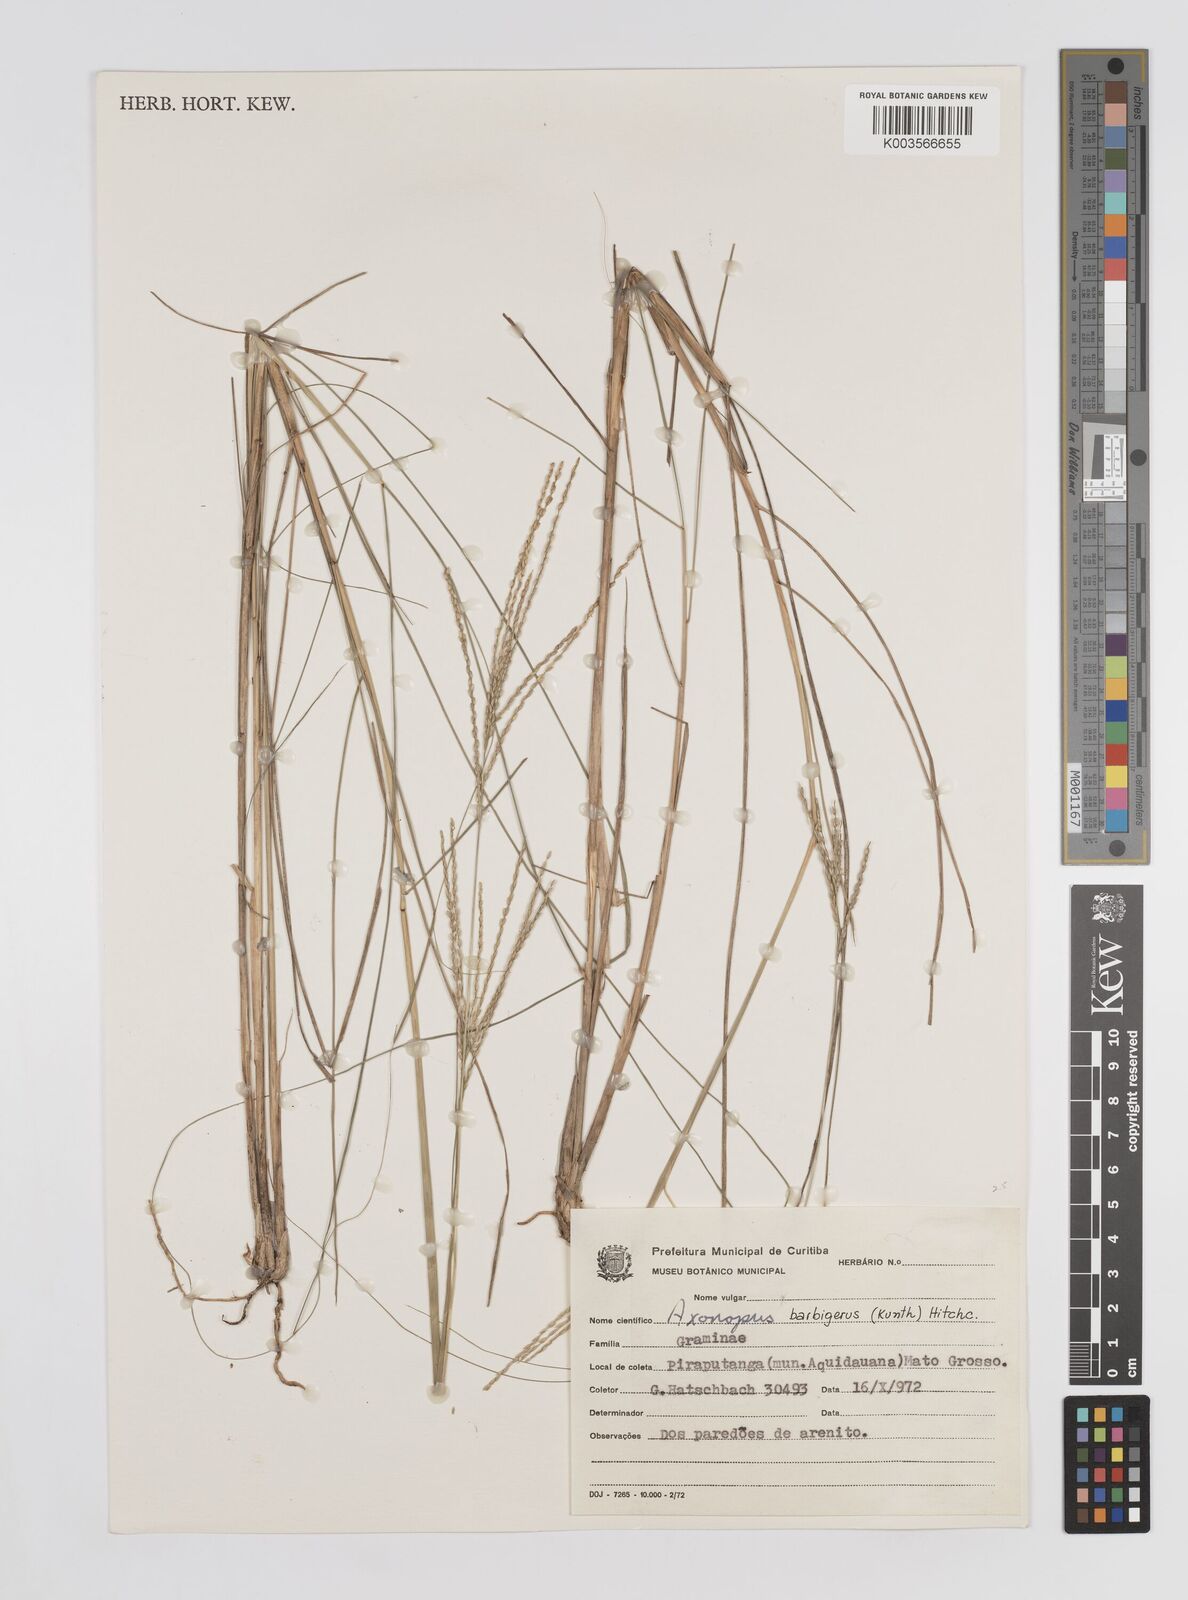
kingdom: Plantae
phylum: Tracheophyta
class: Liliopsida
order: Poales
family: Poaceae
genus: Axonopus
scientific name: Axonopus siccus
